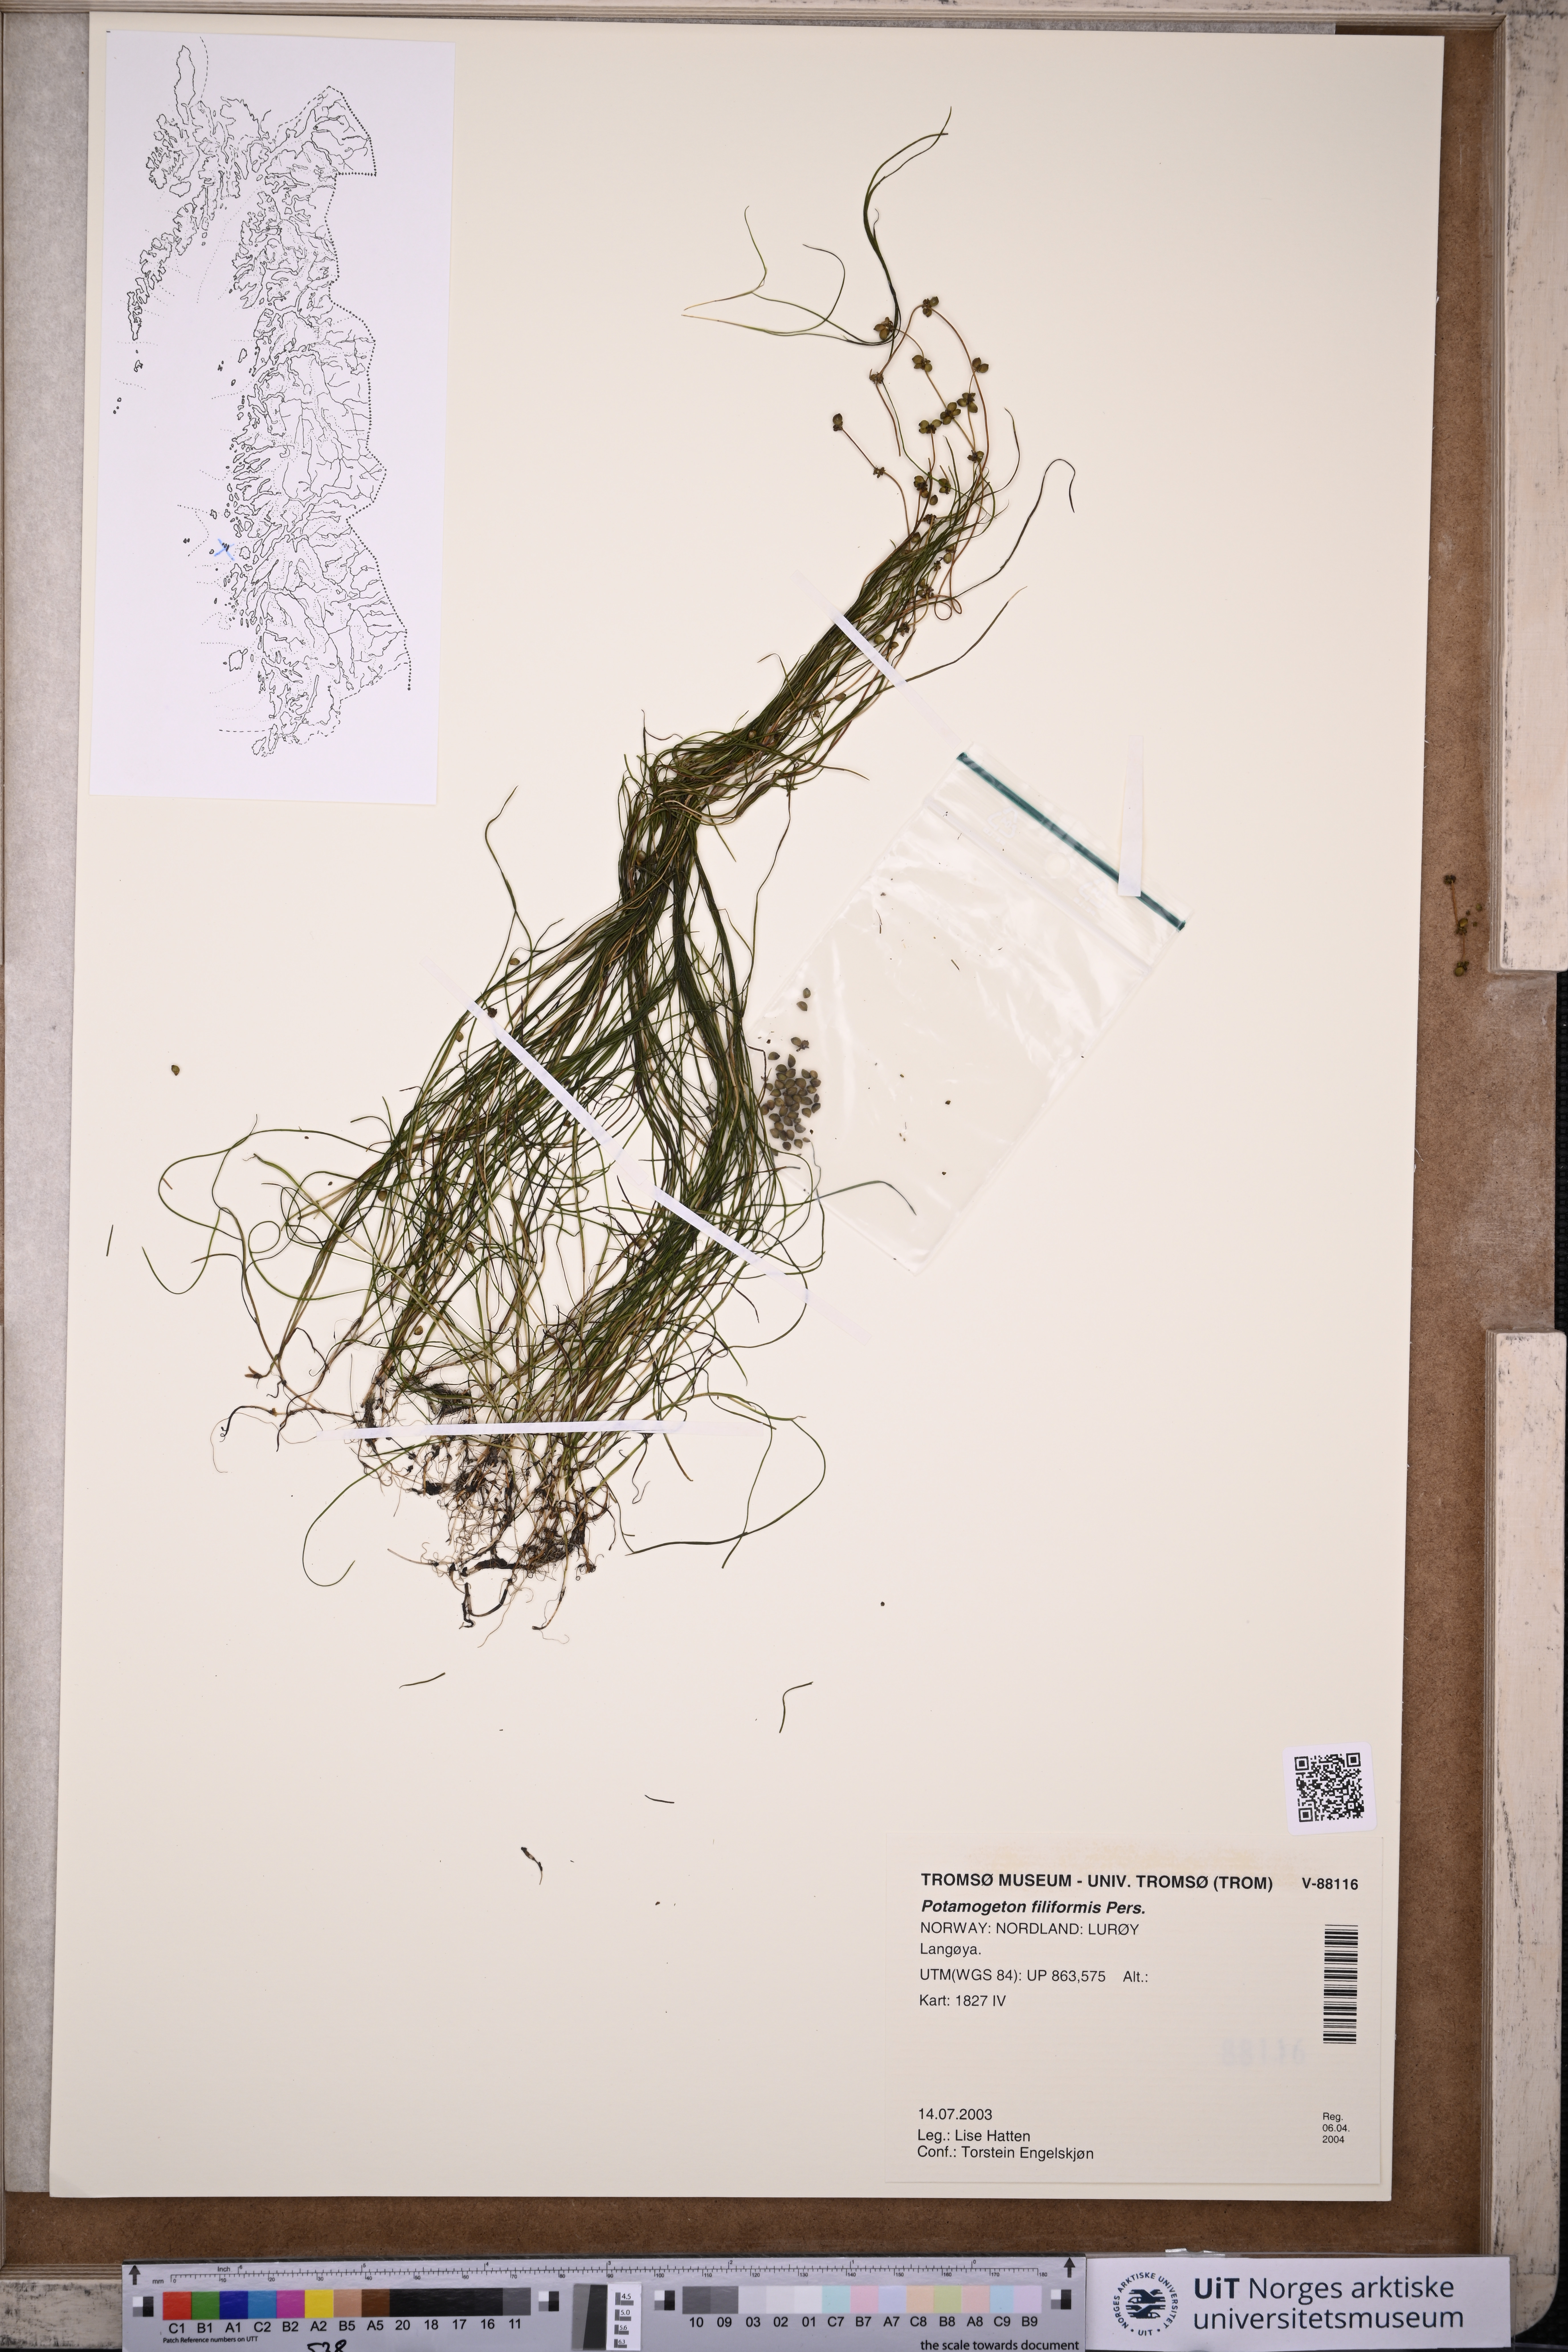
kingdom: Plantae
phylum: Tracheophyta
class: Liliopsida
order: Alismatales
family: Potamogetonaceae
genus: Stuckenia
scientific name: Stuckenia filiformis
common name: Alpine thread-leaved pondweed
